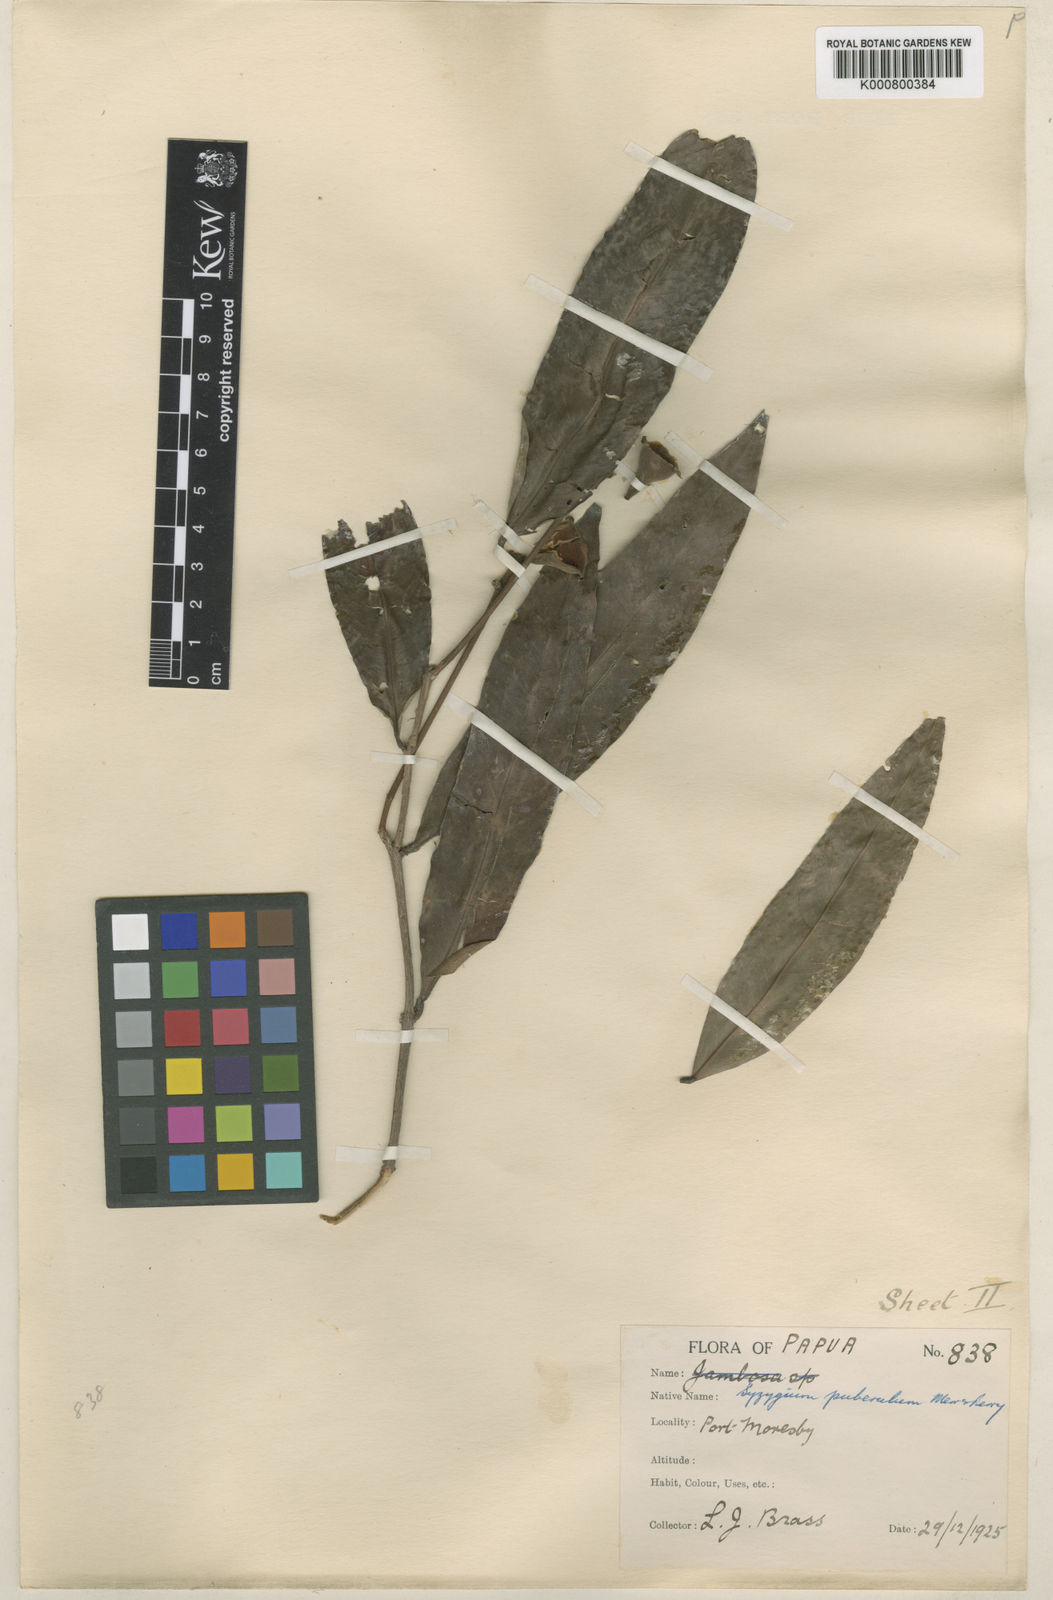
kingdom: Plantae
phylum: Tracheophyta
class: Magnoliopsida
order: Myrtales
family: Myrtaceae
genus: Syzygium
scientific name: Syzygium puberulum
